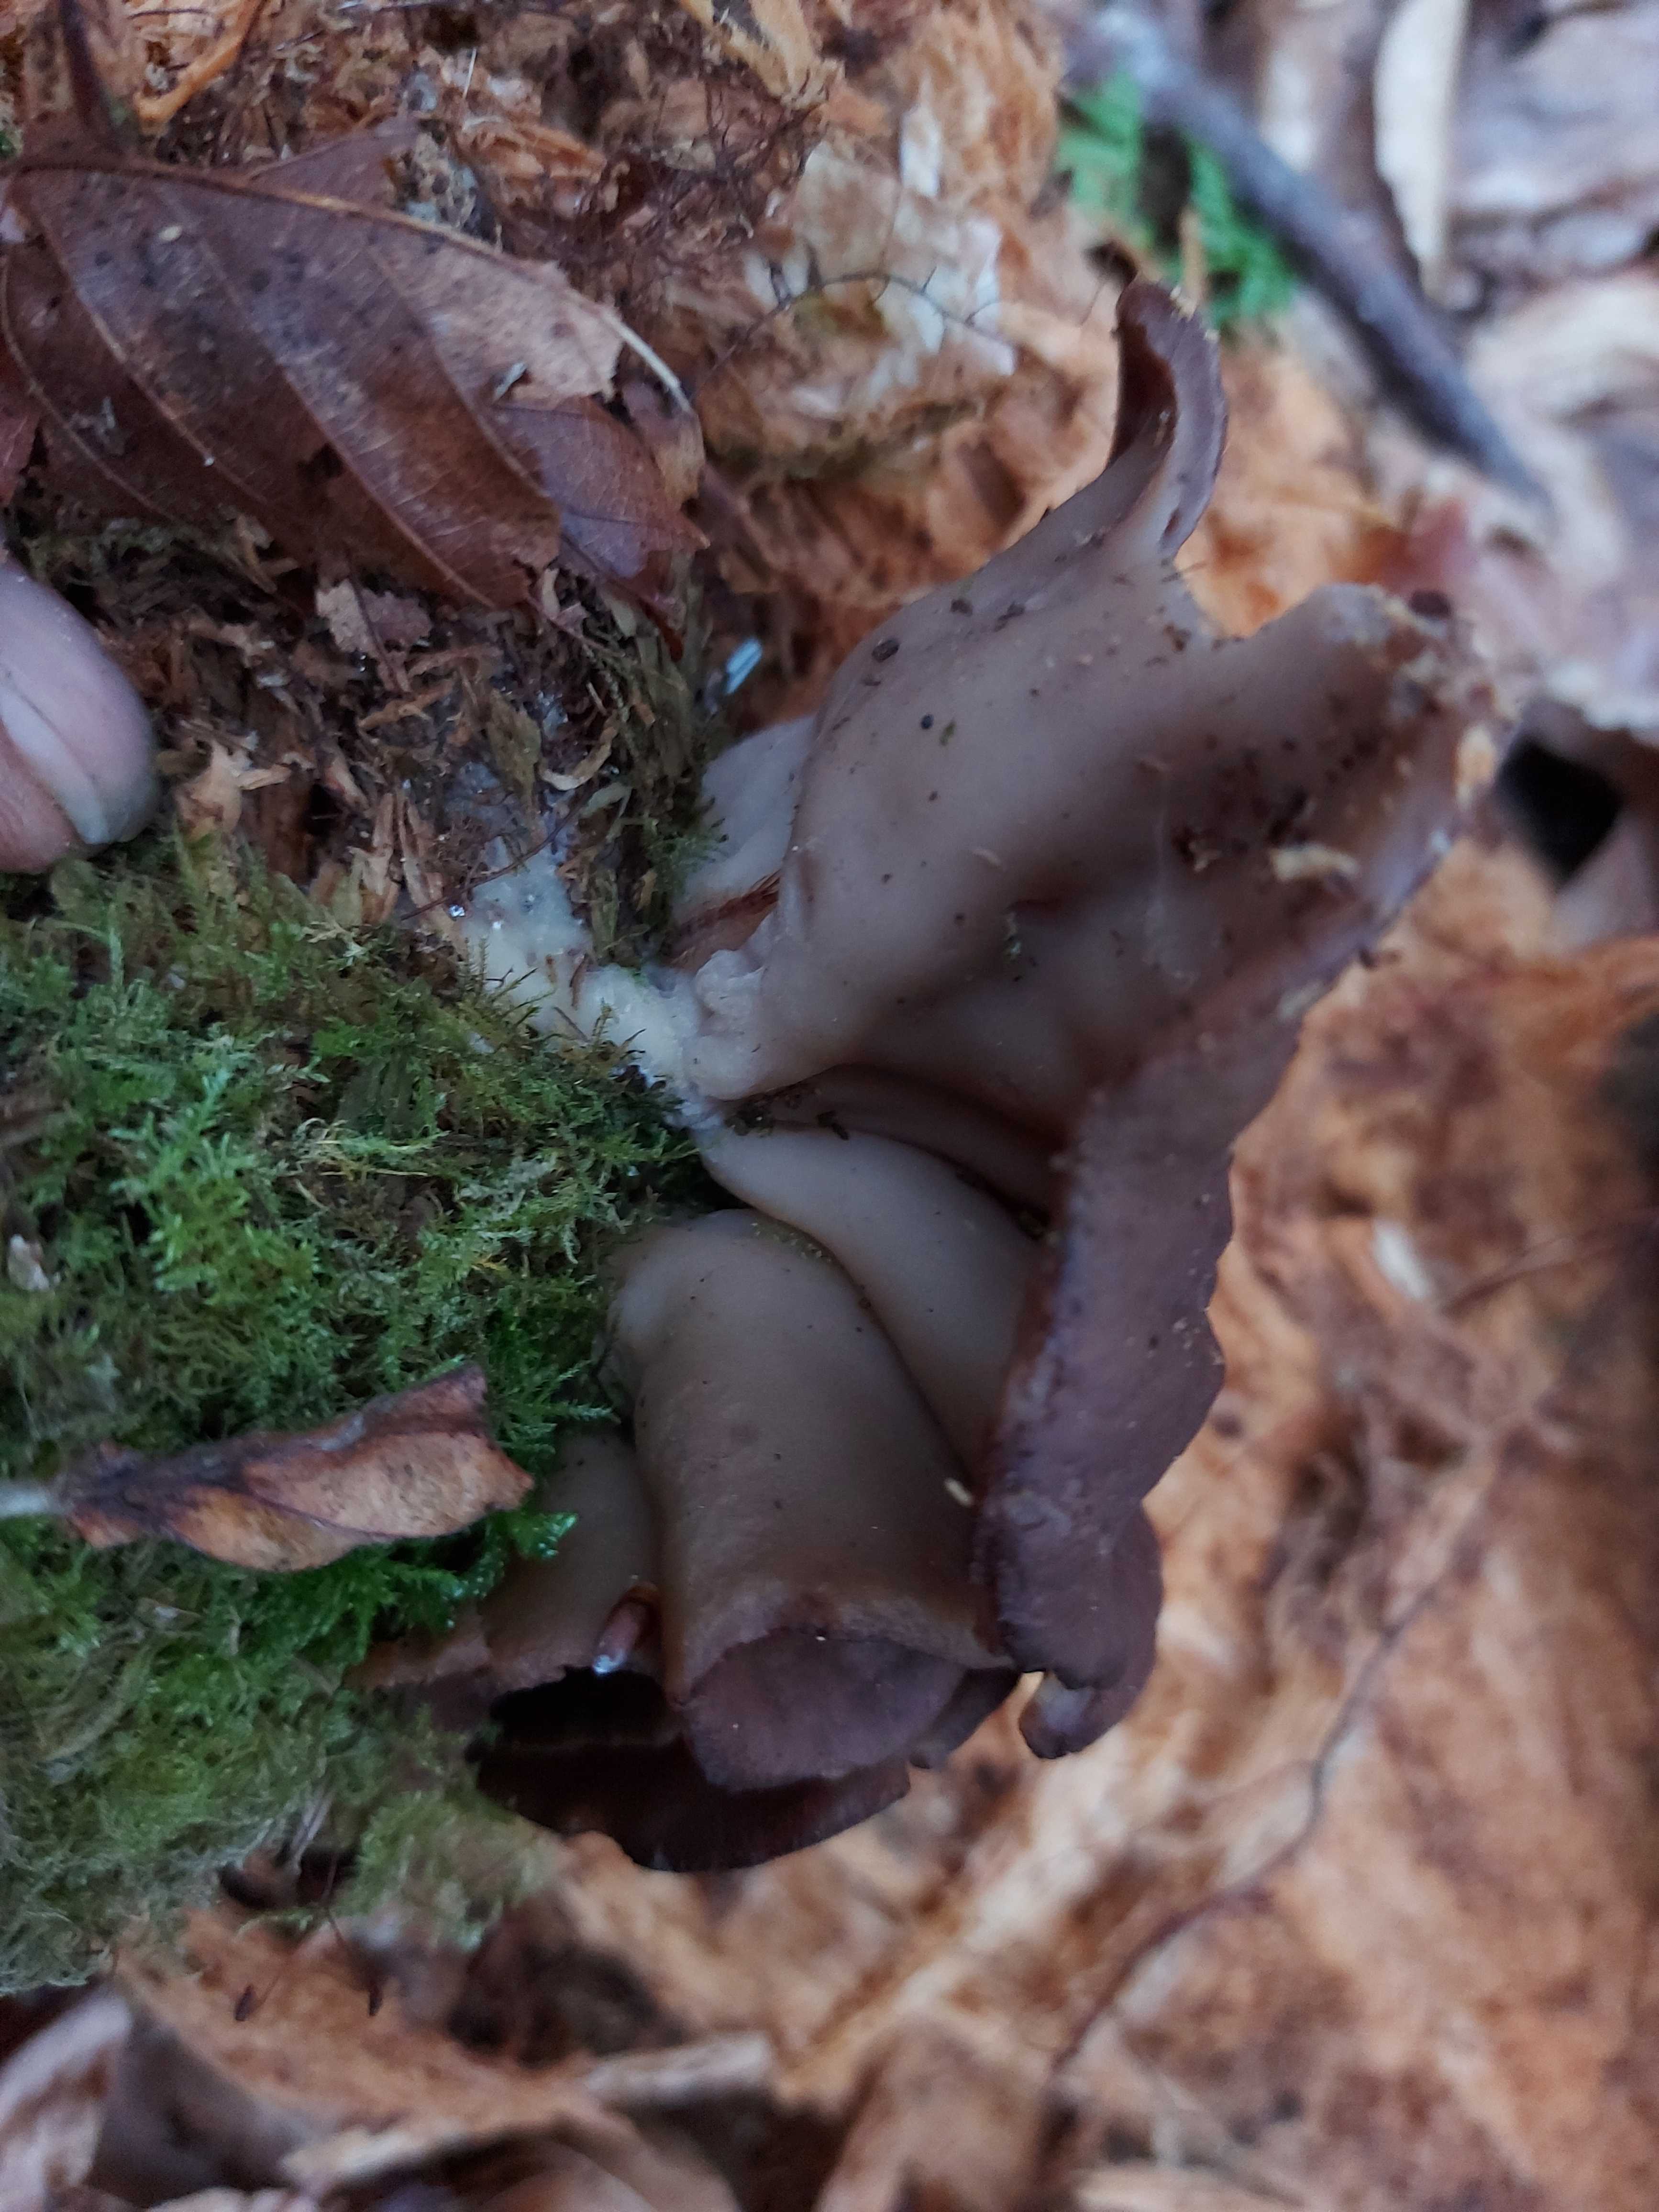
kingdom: Fungi
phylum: Ascomycota
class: Pezizomycetes
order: Pezizales
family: Discinaceae
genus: Discina
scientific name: Discina ancilis
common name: udbredt stenmorkel
